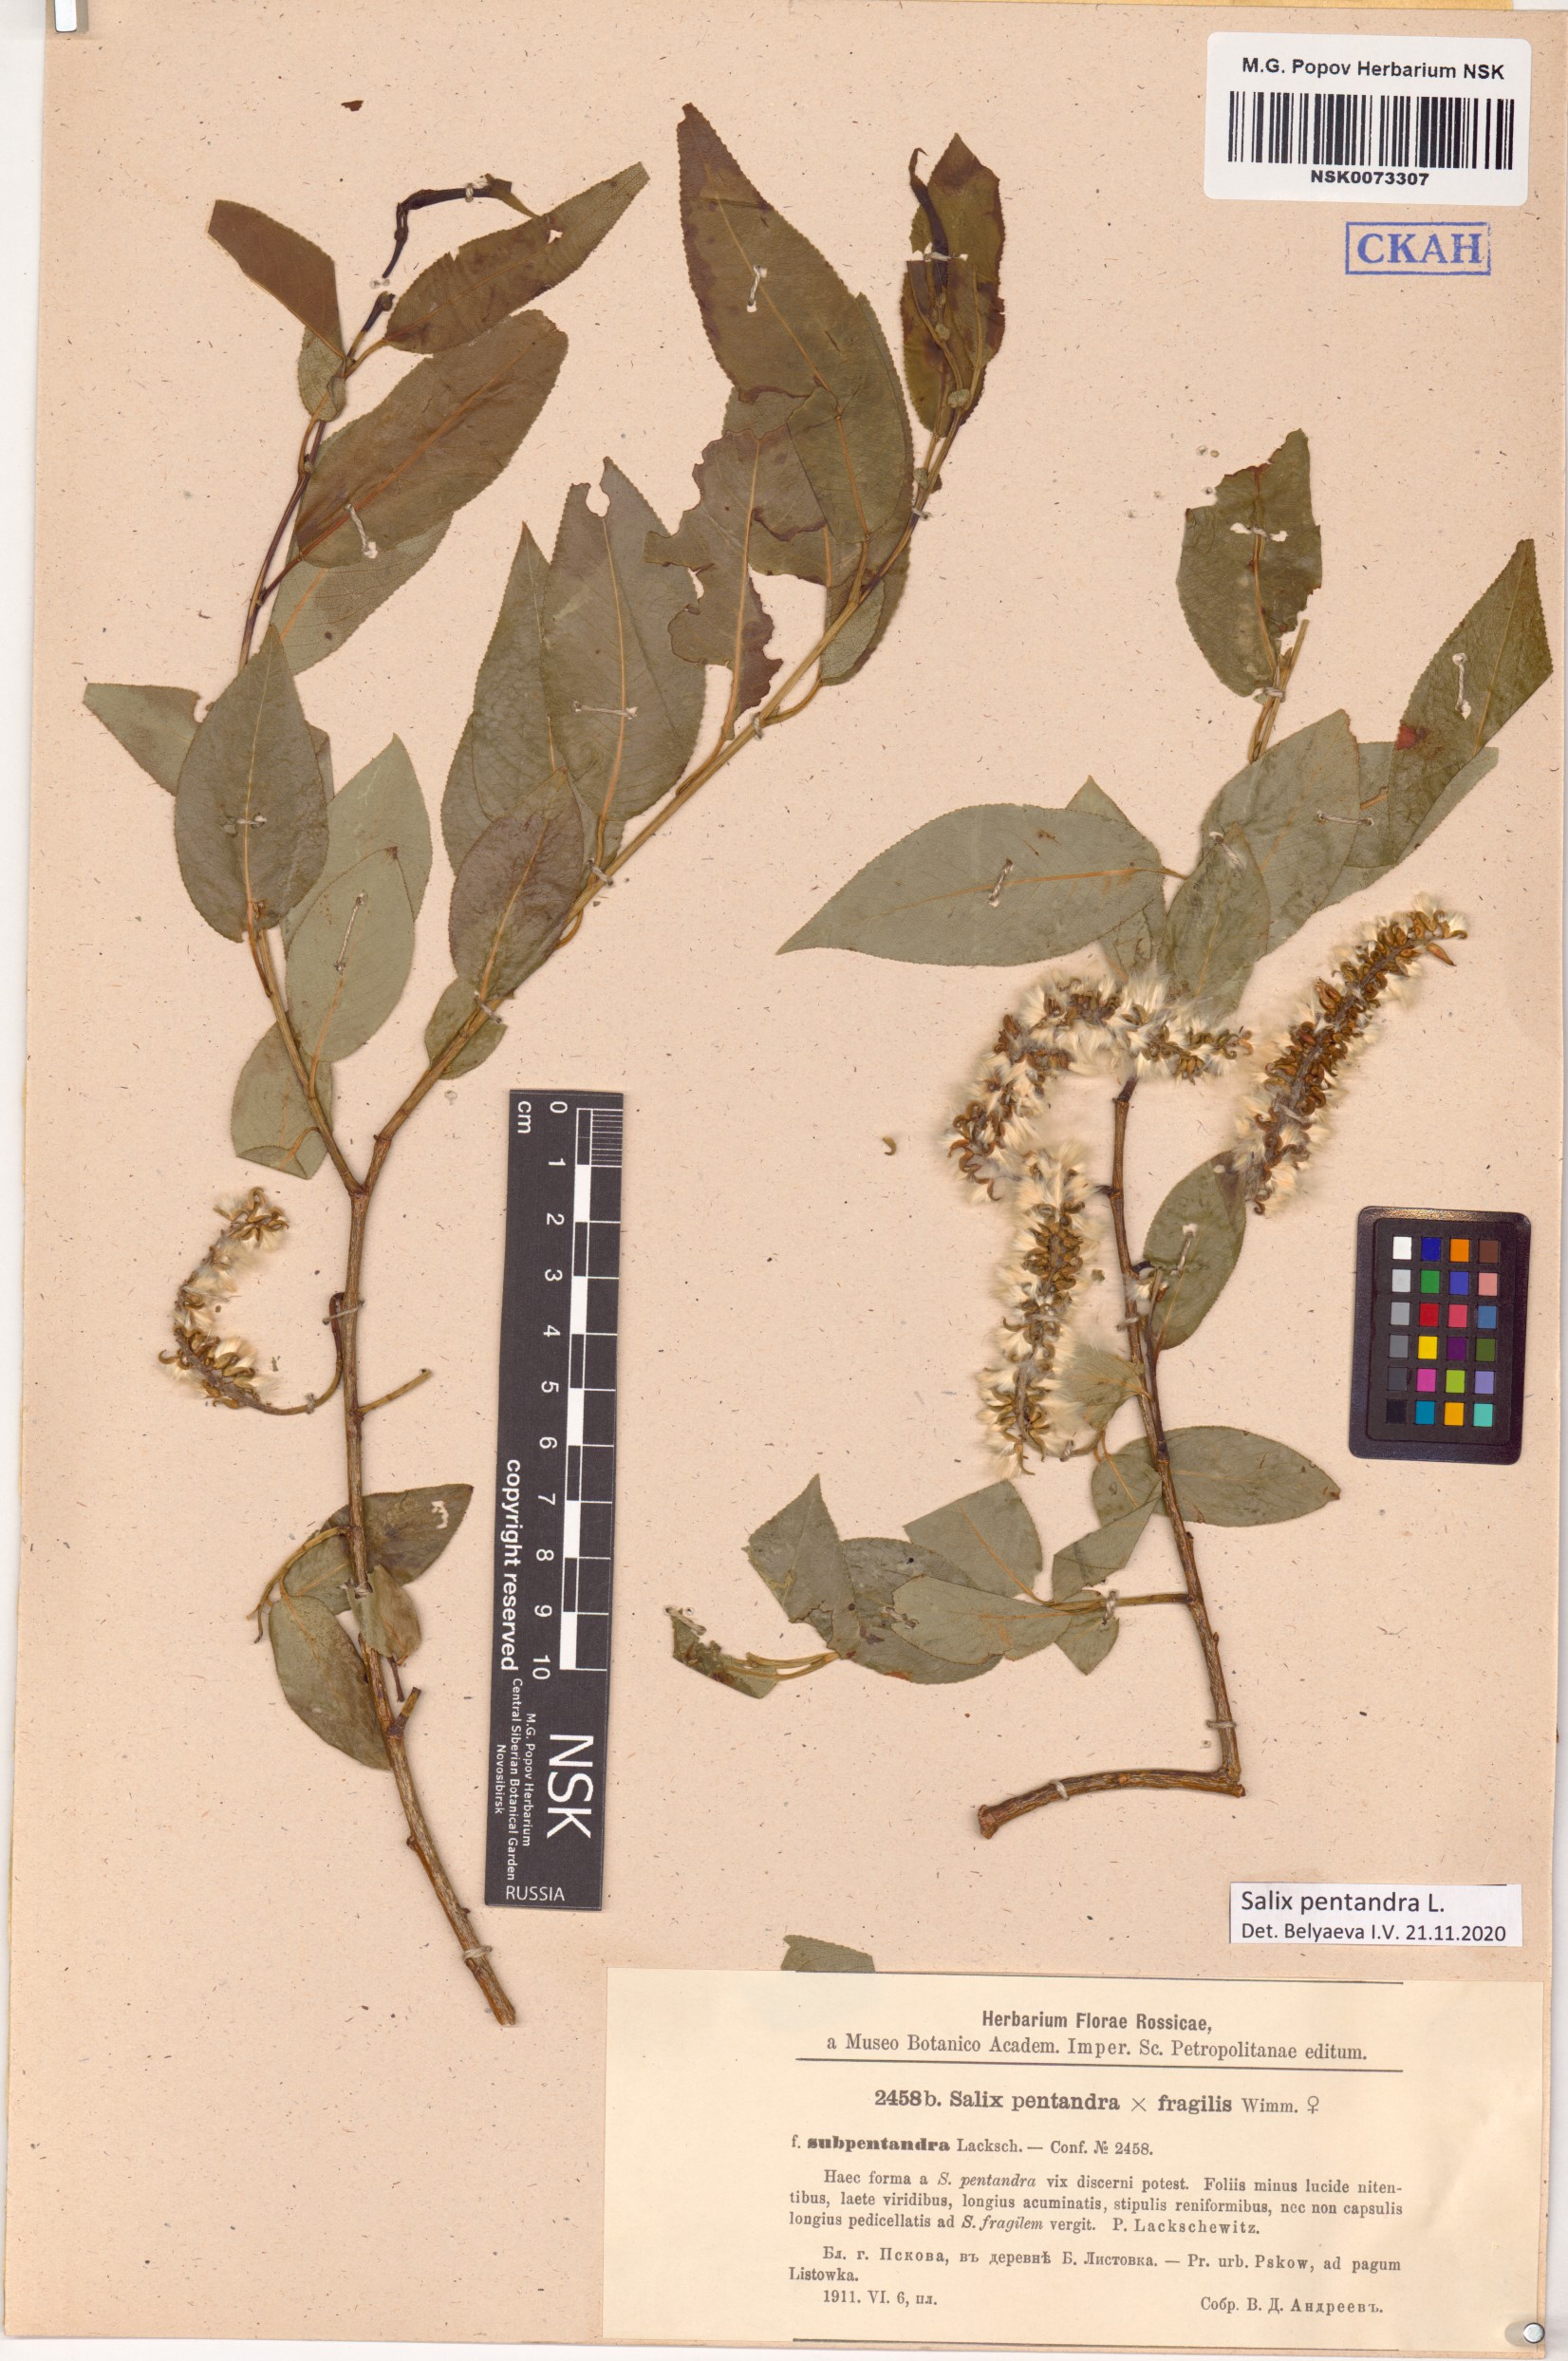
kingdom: Plantae
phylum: Tracheophyta
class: Magnoliopsida
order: Malpighiales
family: Salicaceae
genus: Salix
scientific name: Salix pentandra
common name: Bay willow
